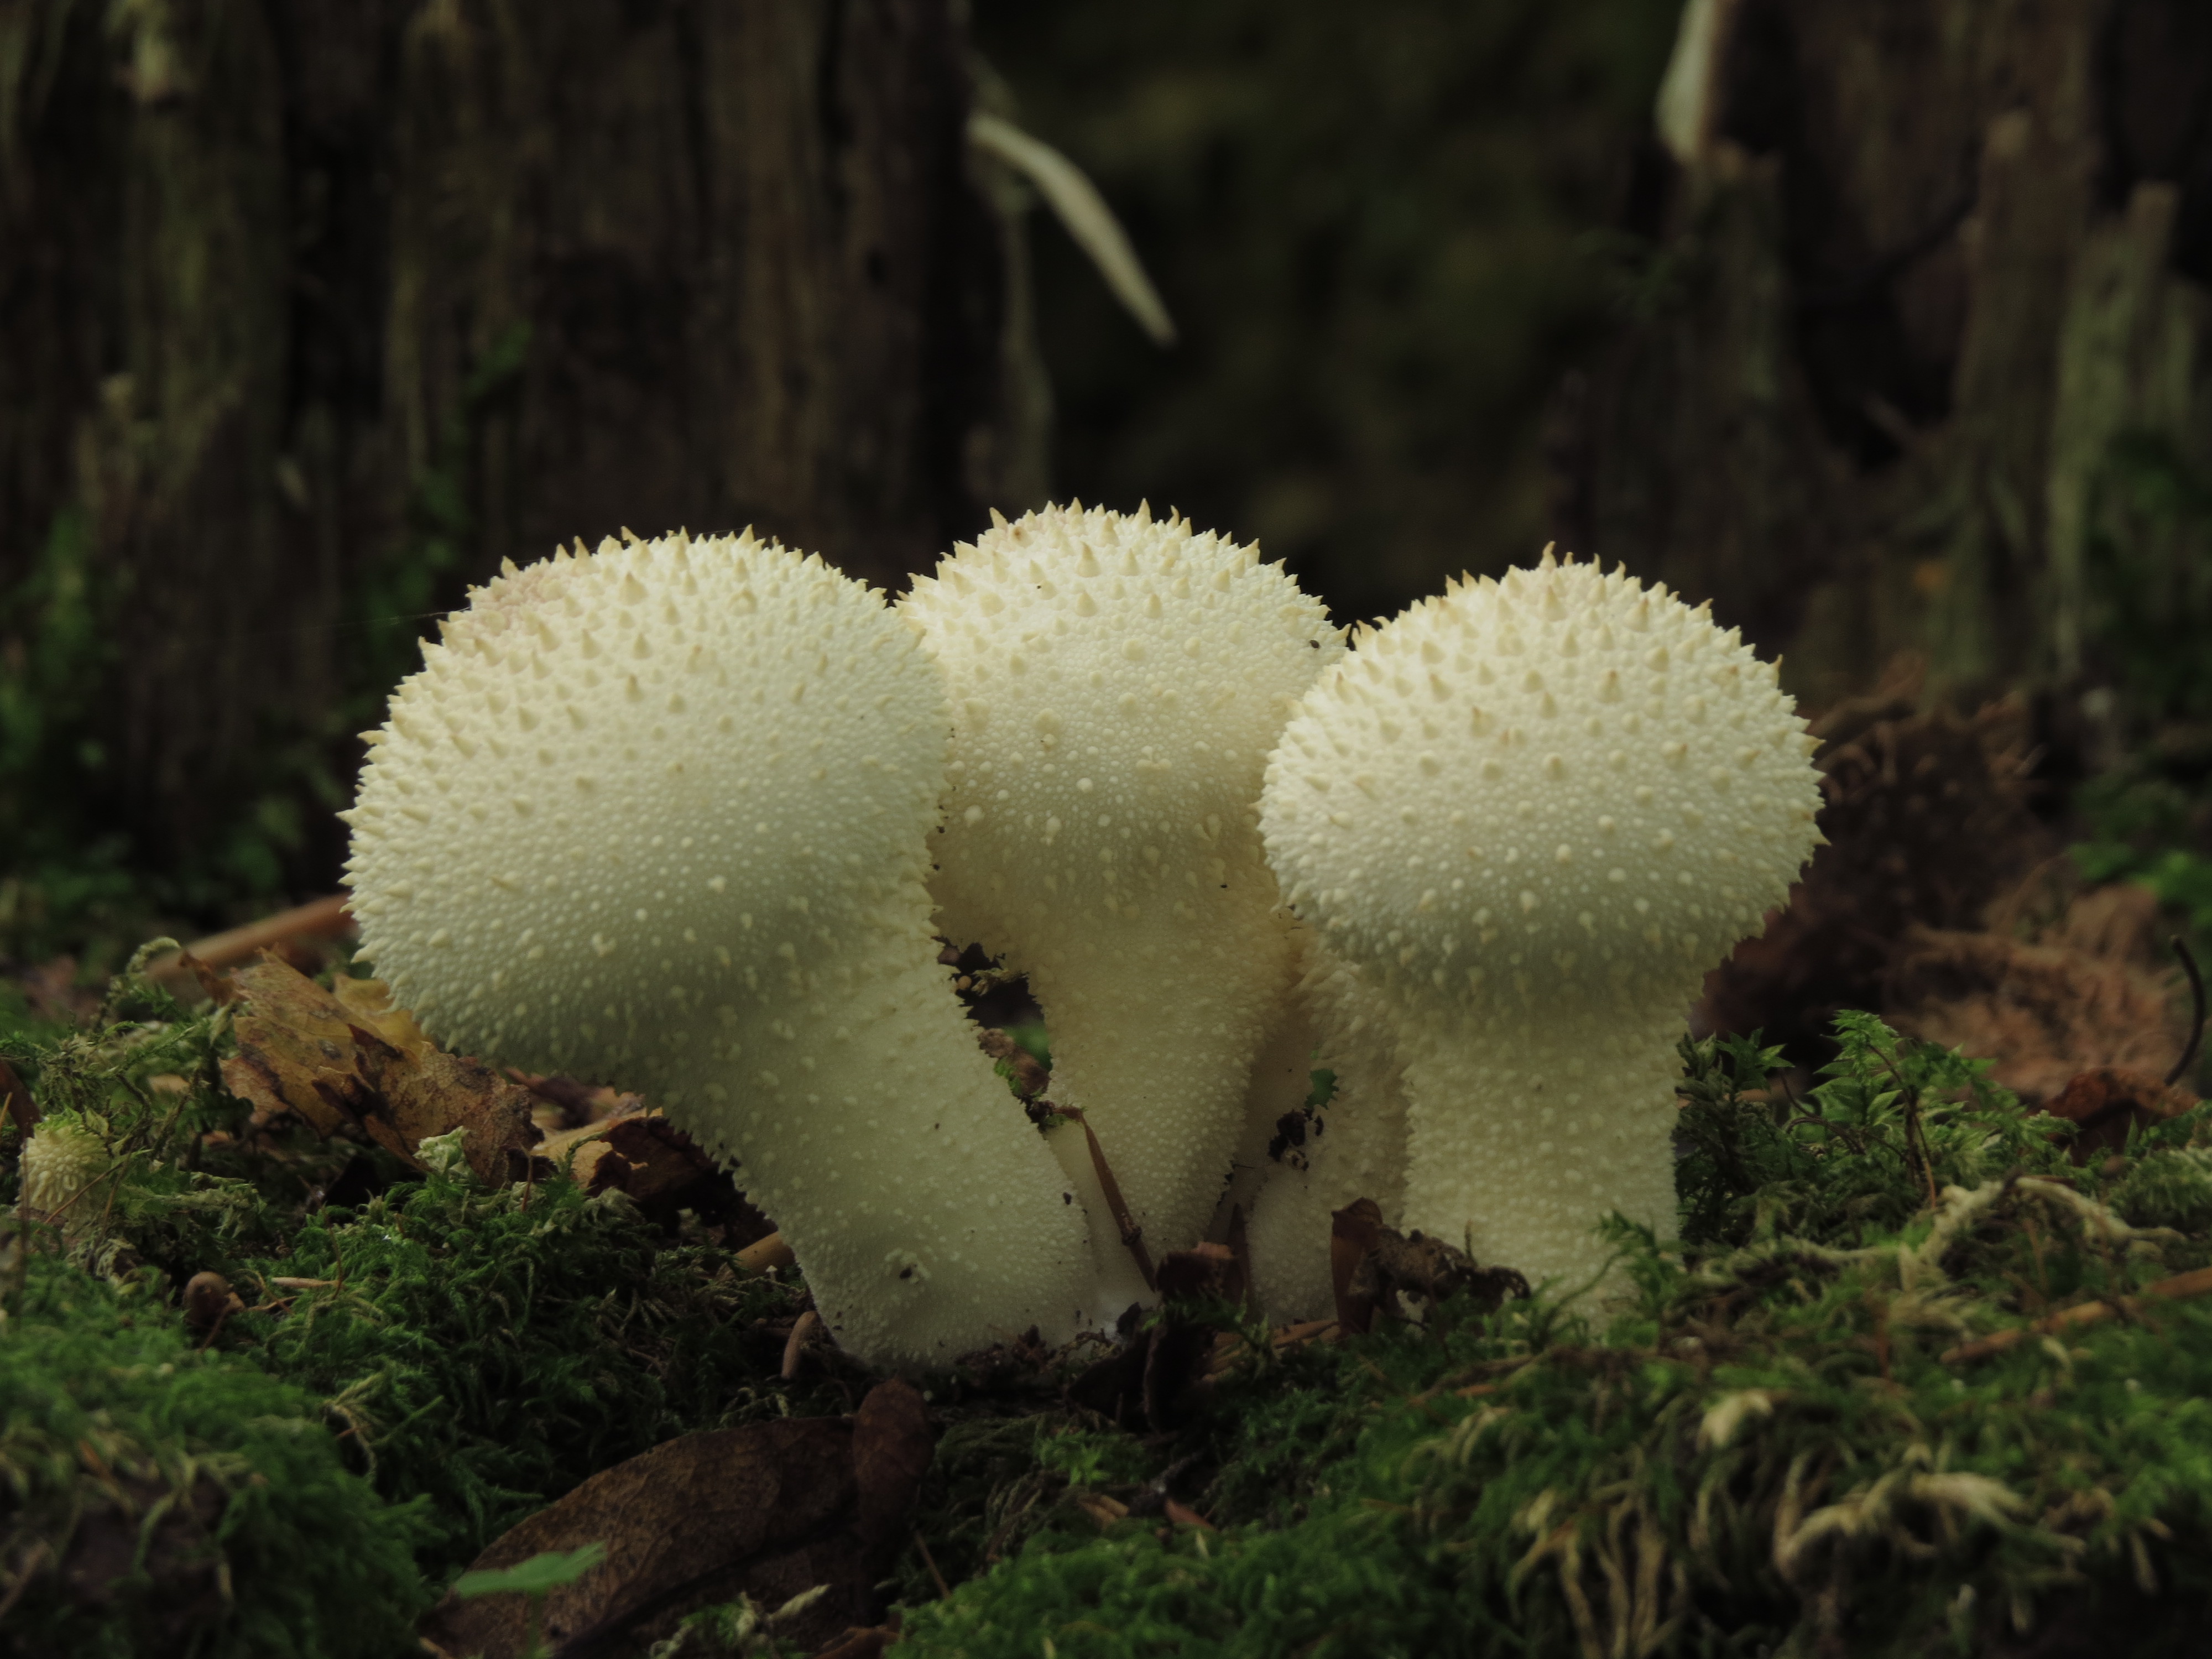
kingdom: Fungi
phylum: Basidiomycota
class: Agaricomycetes
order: Agaricales
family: Lycoperdaceae
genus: Apioperdon
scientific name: Apioperdon pyriforme
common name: Pear-shaped puffball
